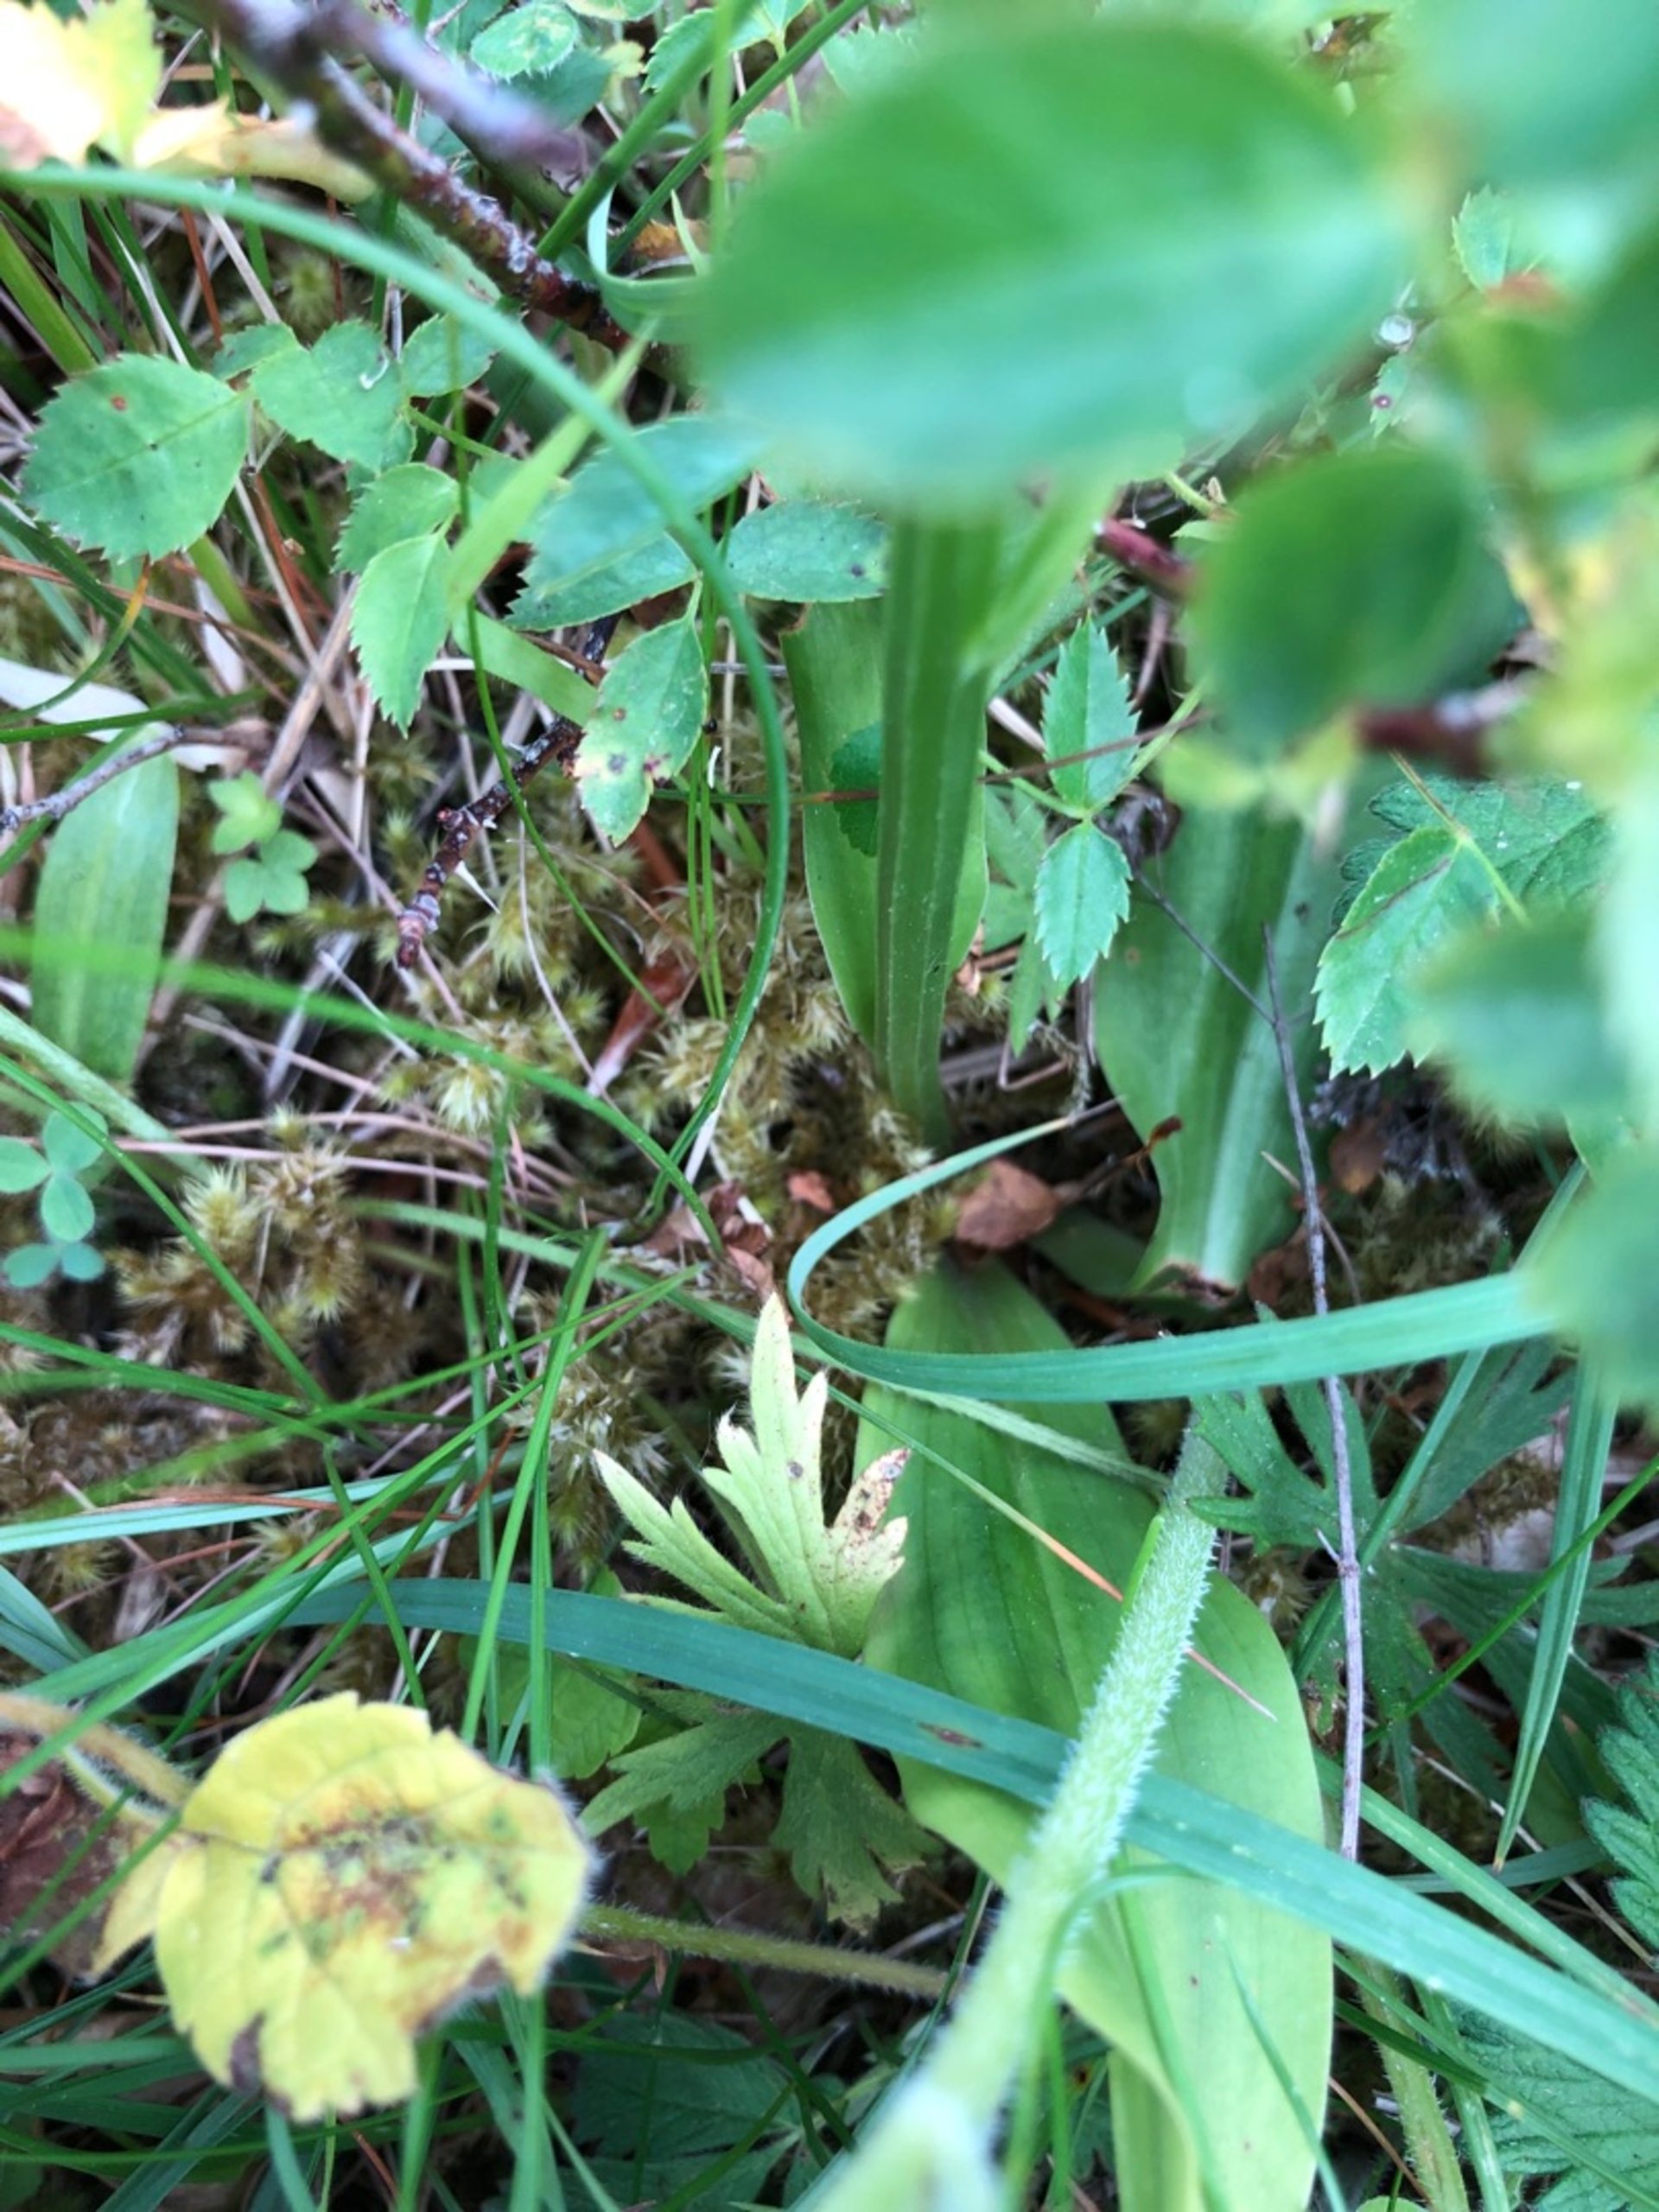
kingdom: Plantae
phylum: Tracheophyta
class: Liliopsida
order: Asparagales
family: Orchidaceae
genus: Platanthera
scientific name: Platanthera chlorantha
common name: Skov-gøgelilje
